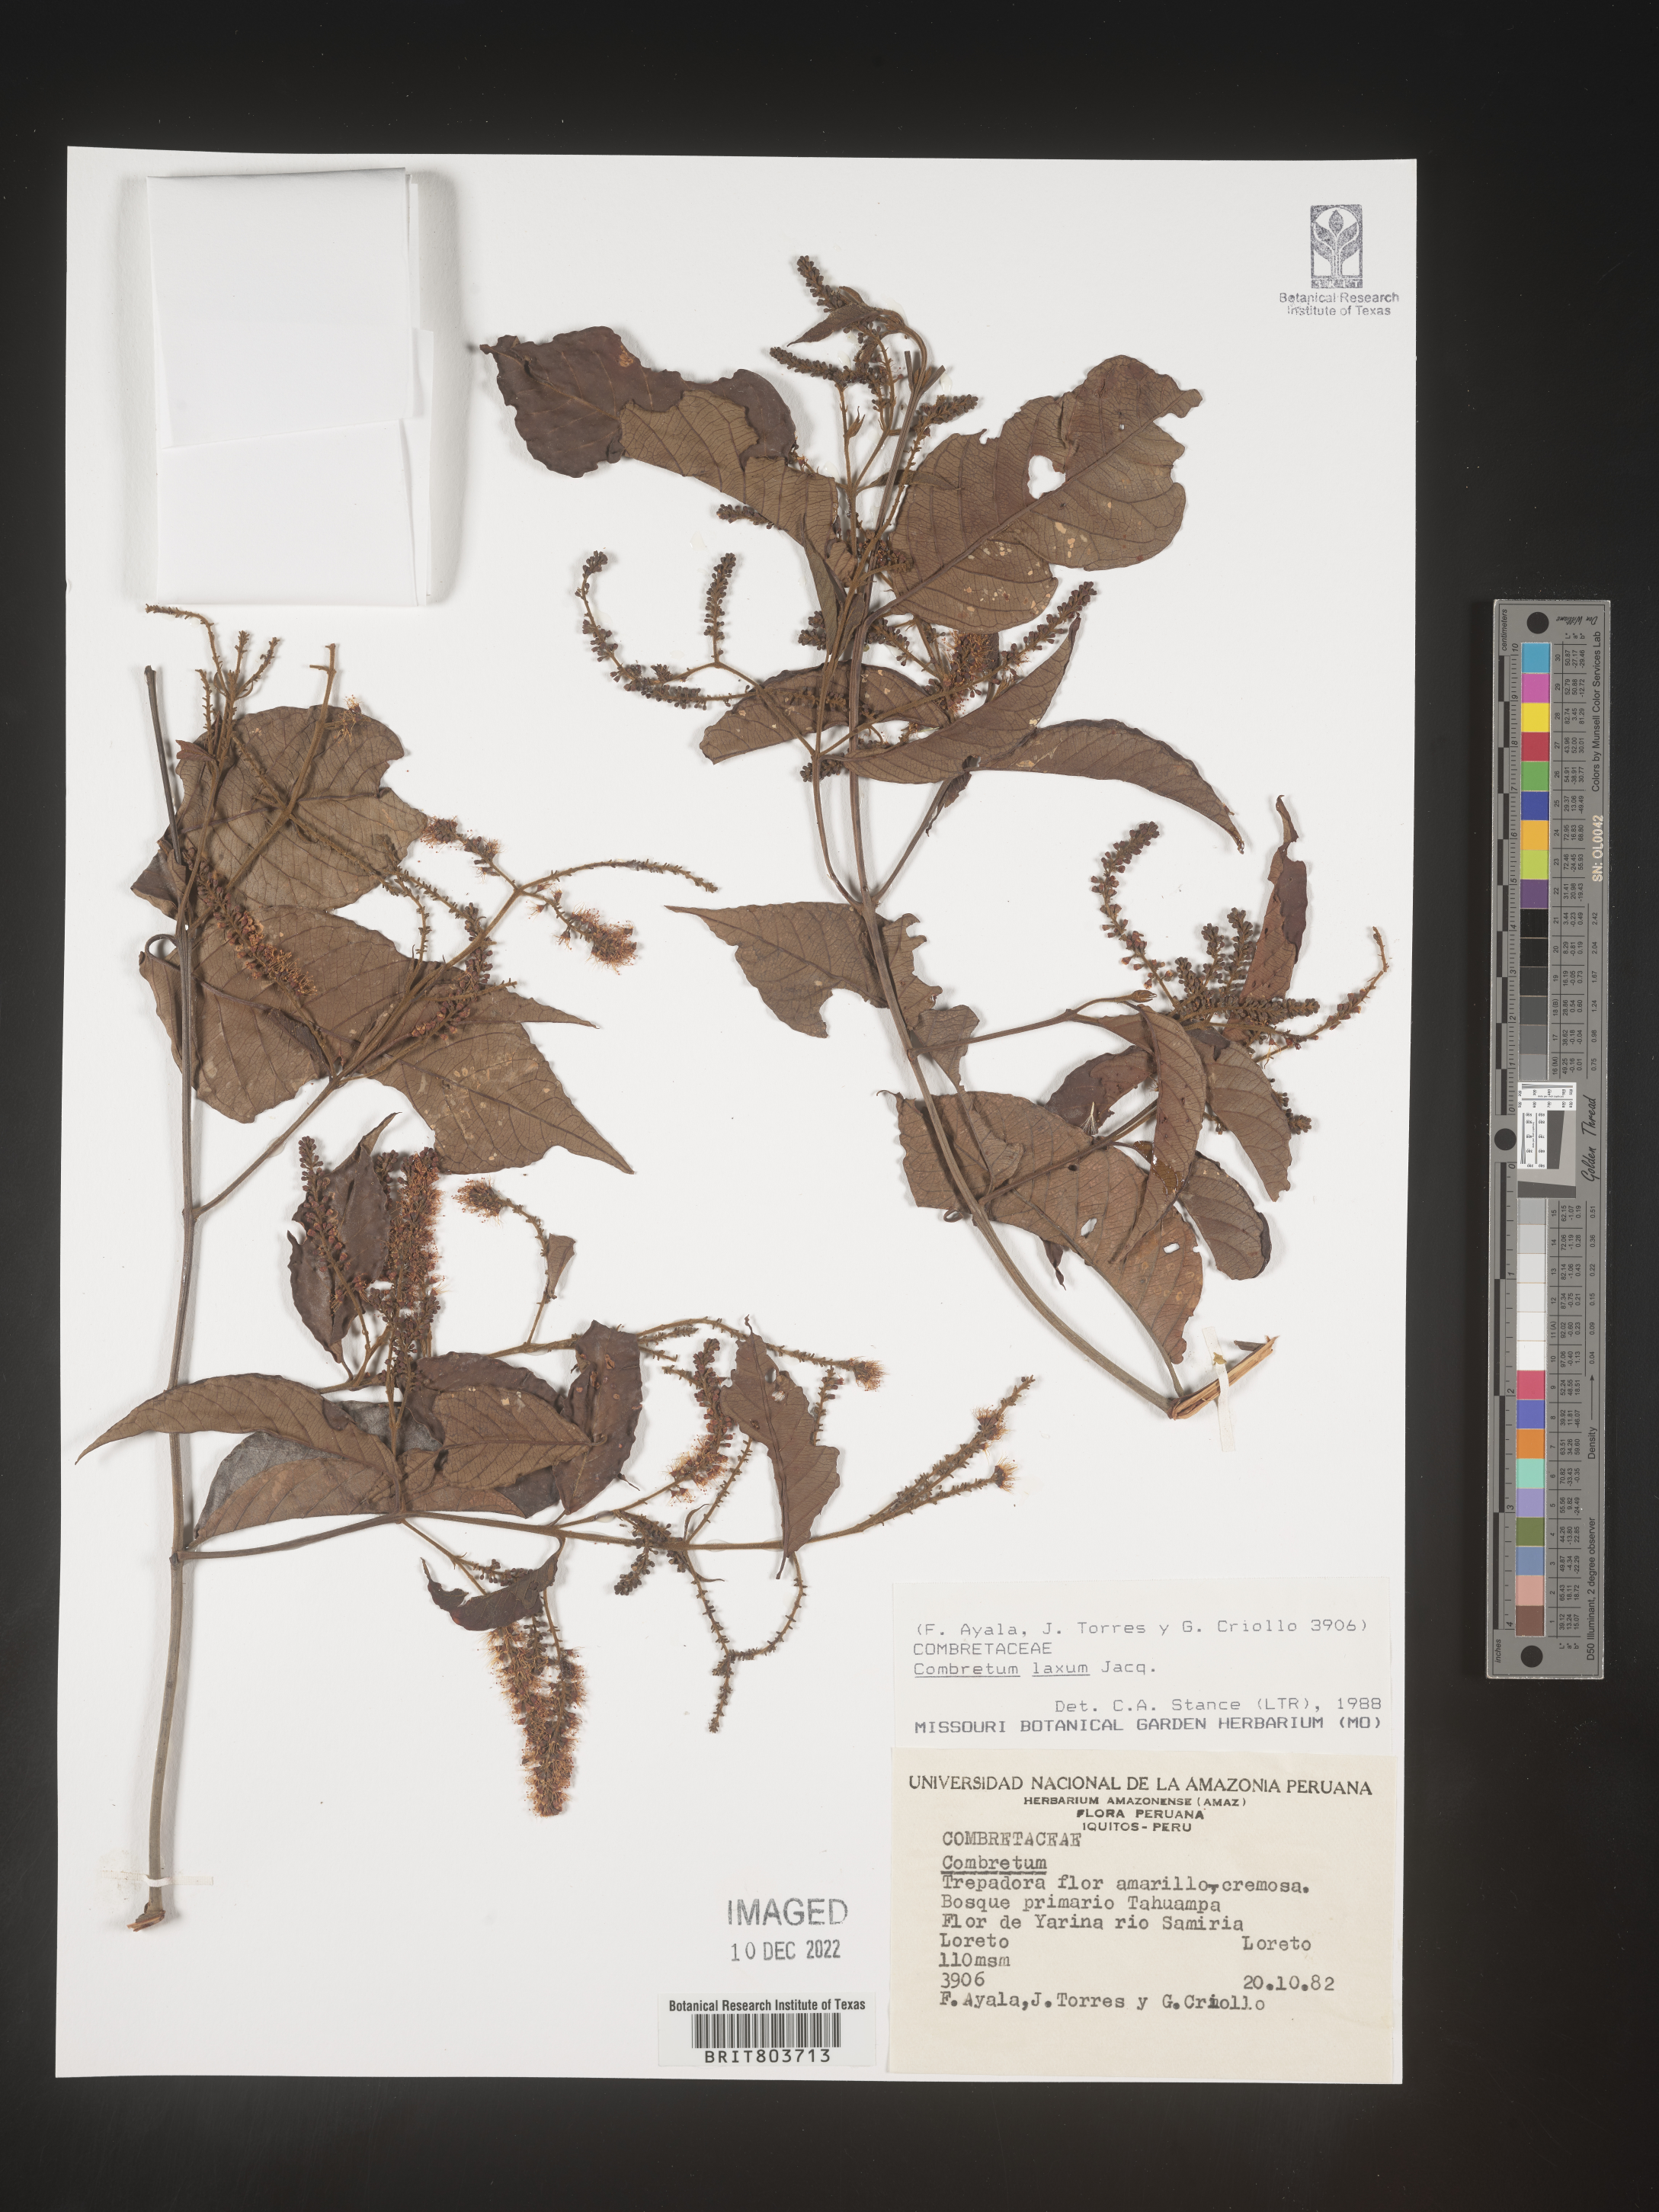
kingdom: Plantae
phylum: Tracheophyta
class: Magnoliopsida
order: Myrtales
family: Combretaceae
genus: Combretum
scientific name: Combretum
